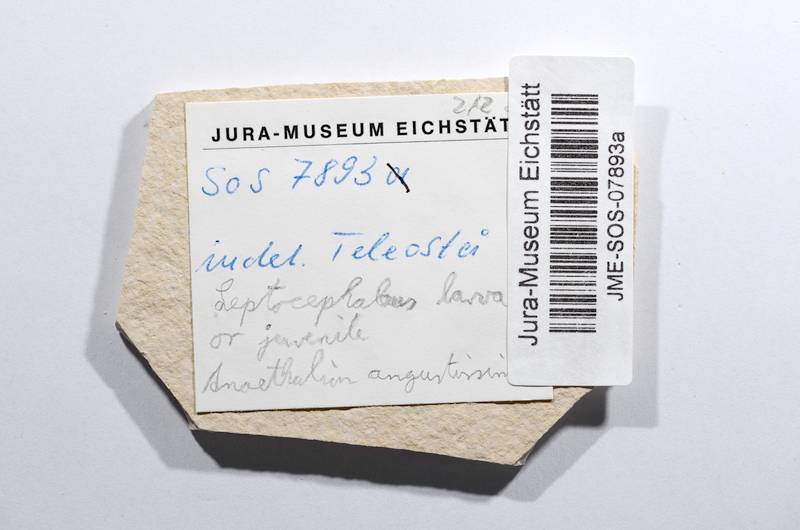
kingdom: Animalia
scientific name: Animalia
